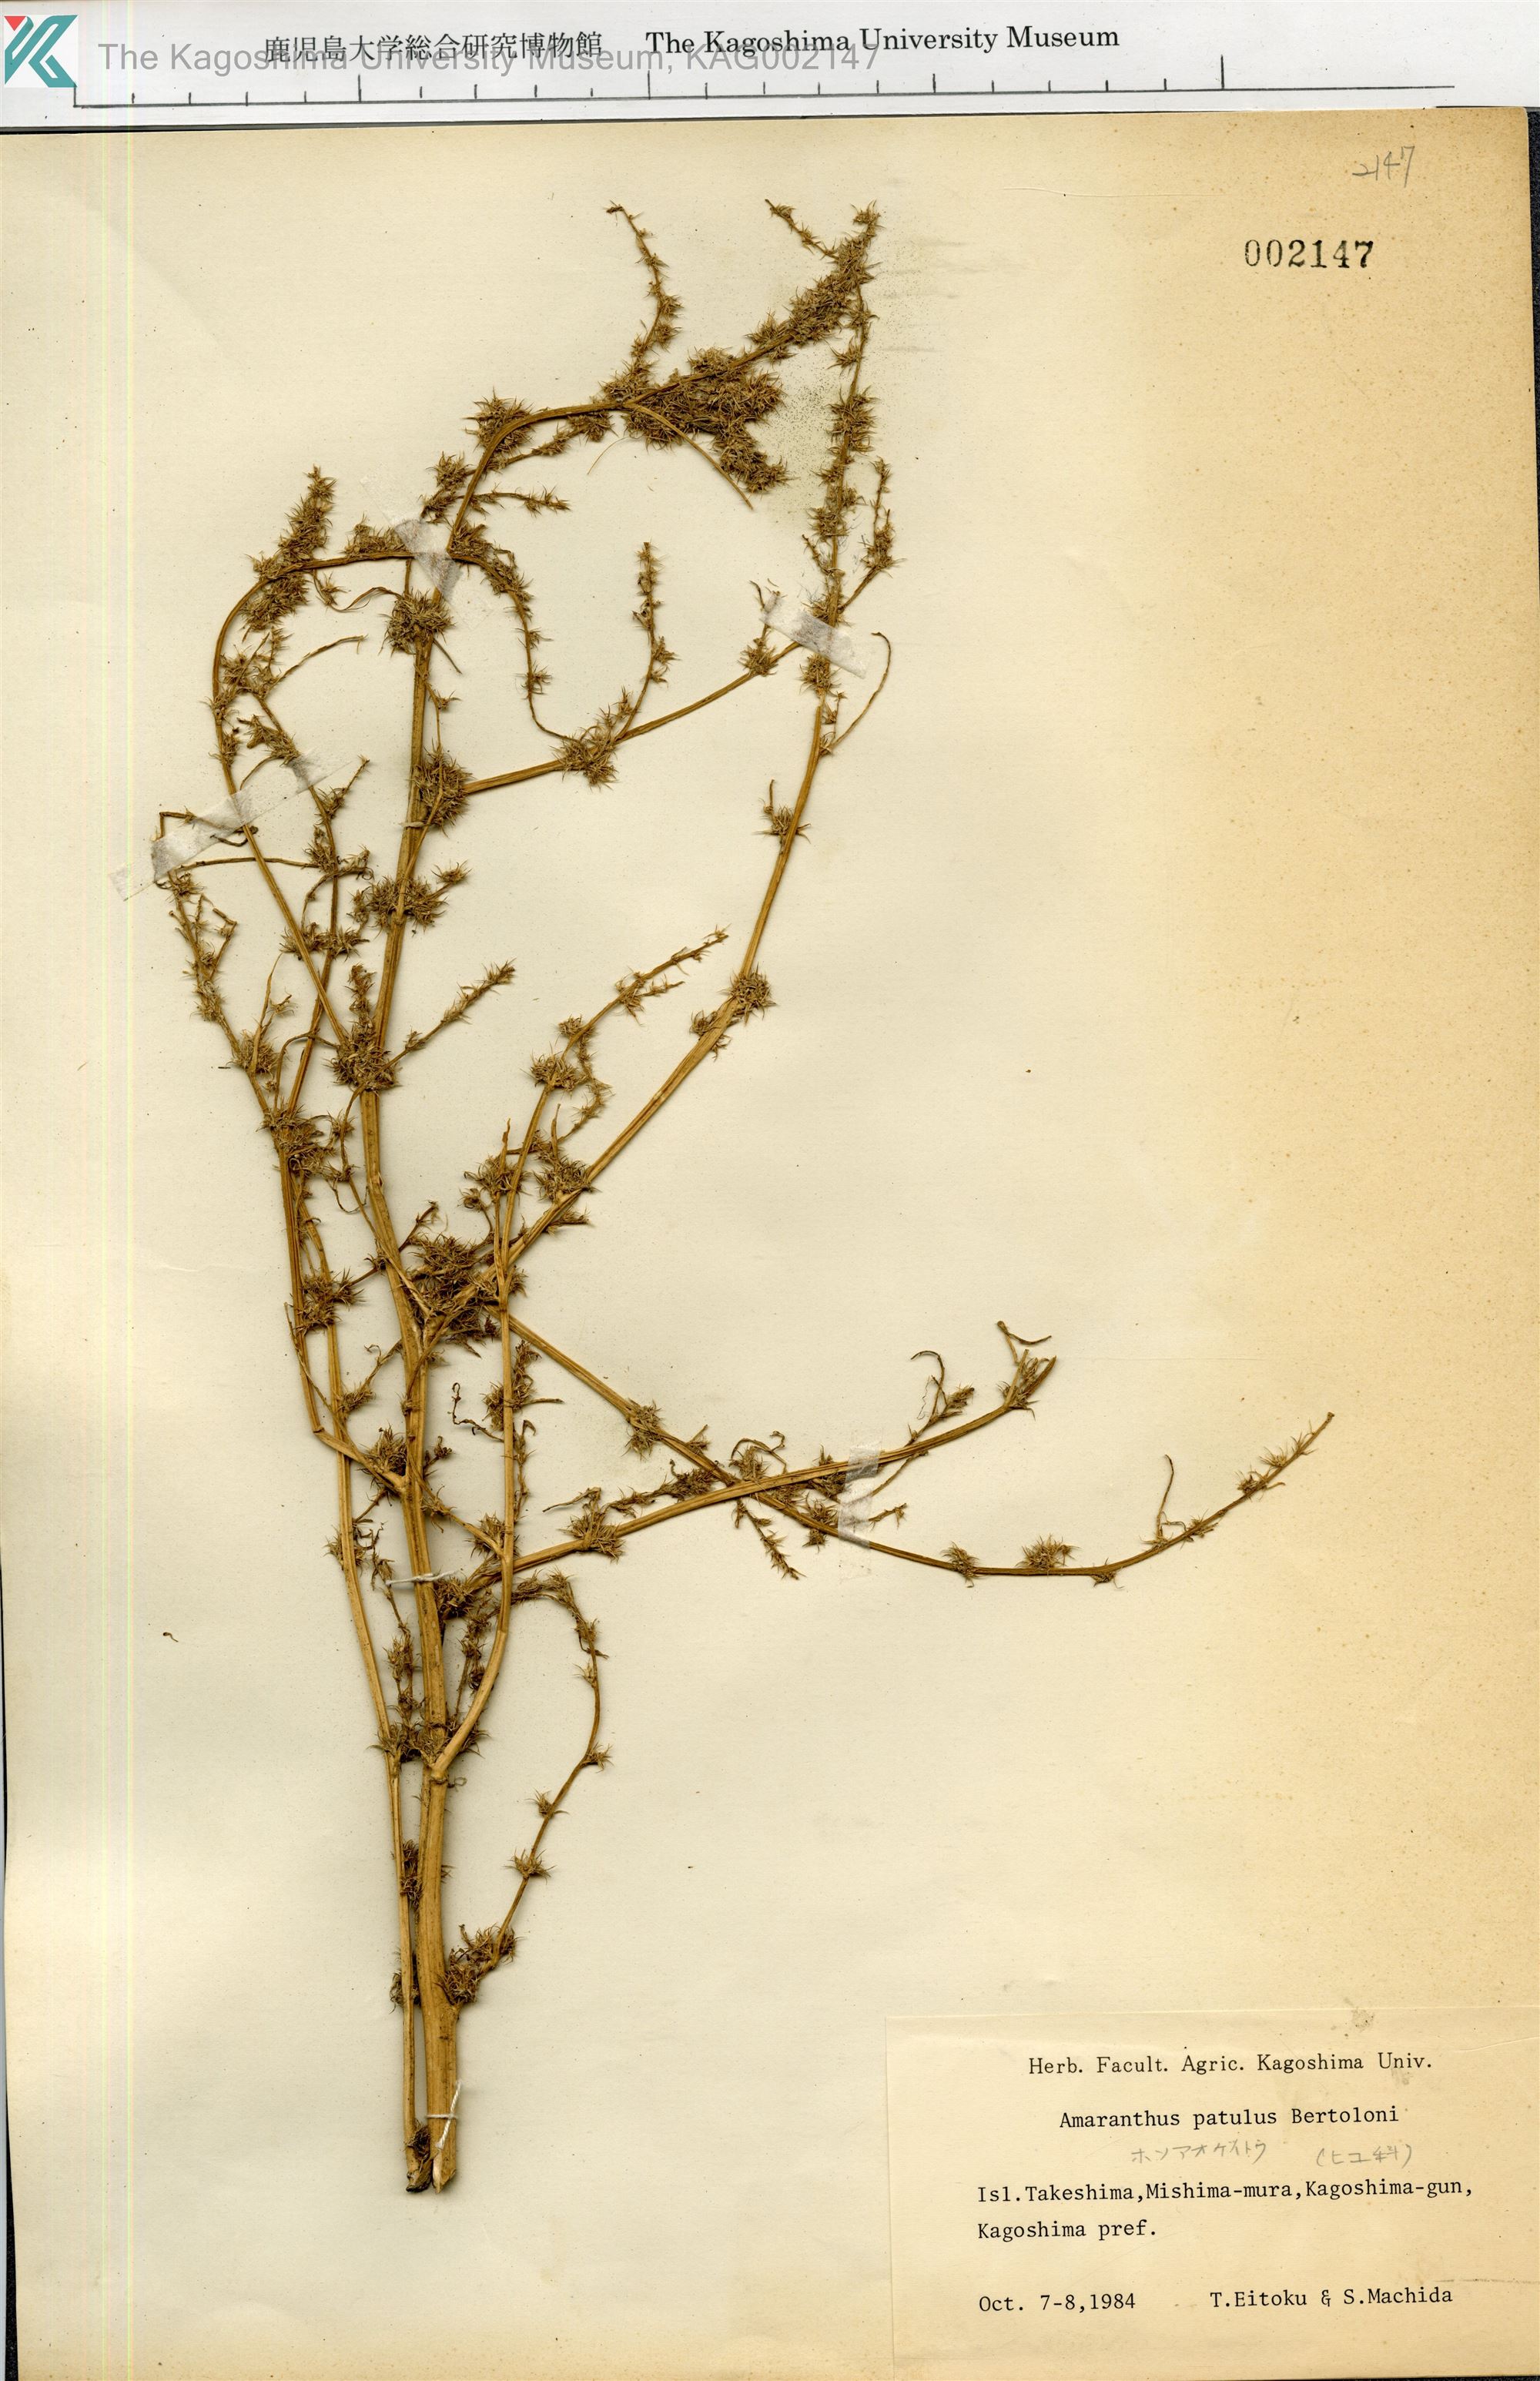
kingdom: Plantae
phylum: Tracheophyta
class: Magnoliopsida
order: Caryophyllales
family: Amaranthaceae
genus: Amaranthus
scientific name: Amaranthus hybridus
